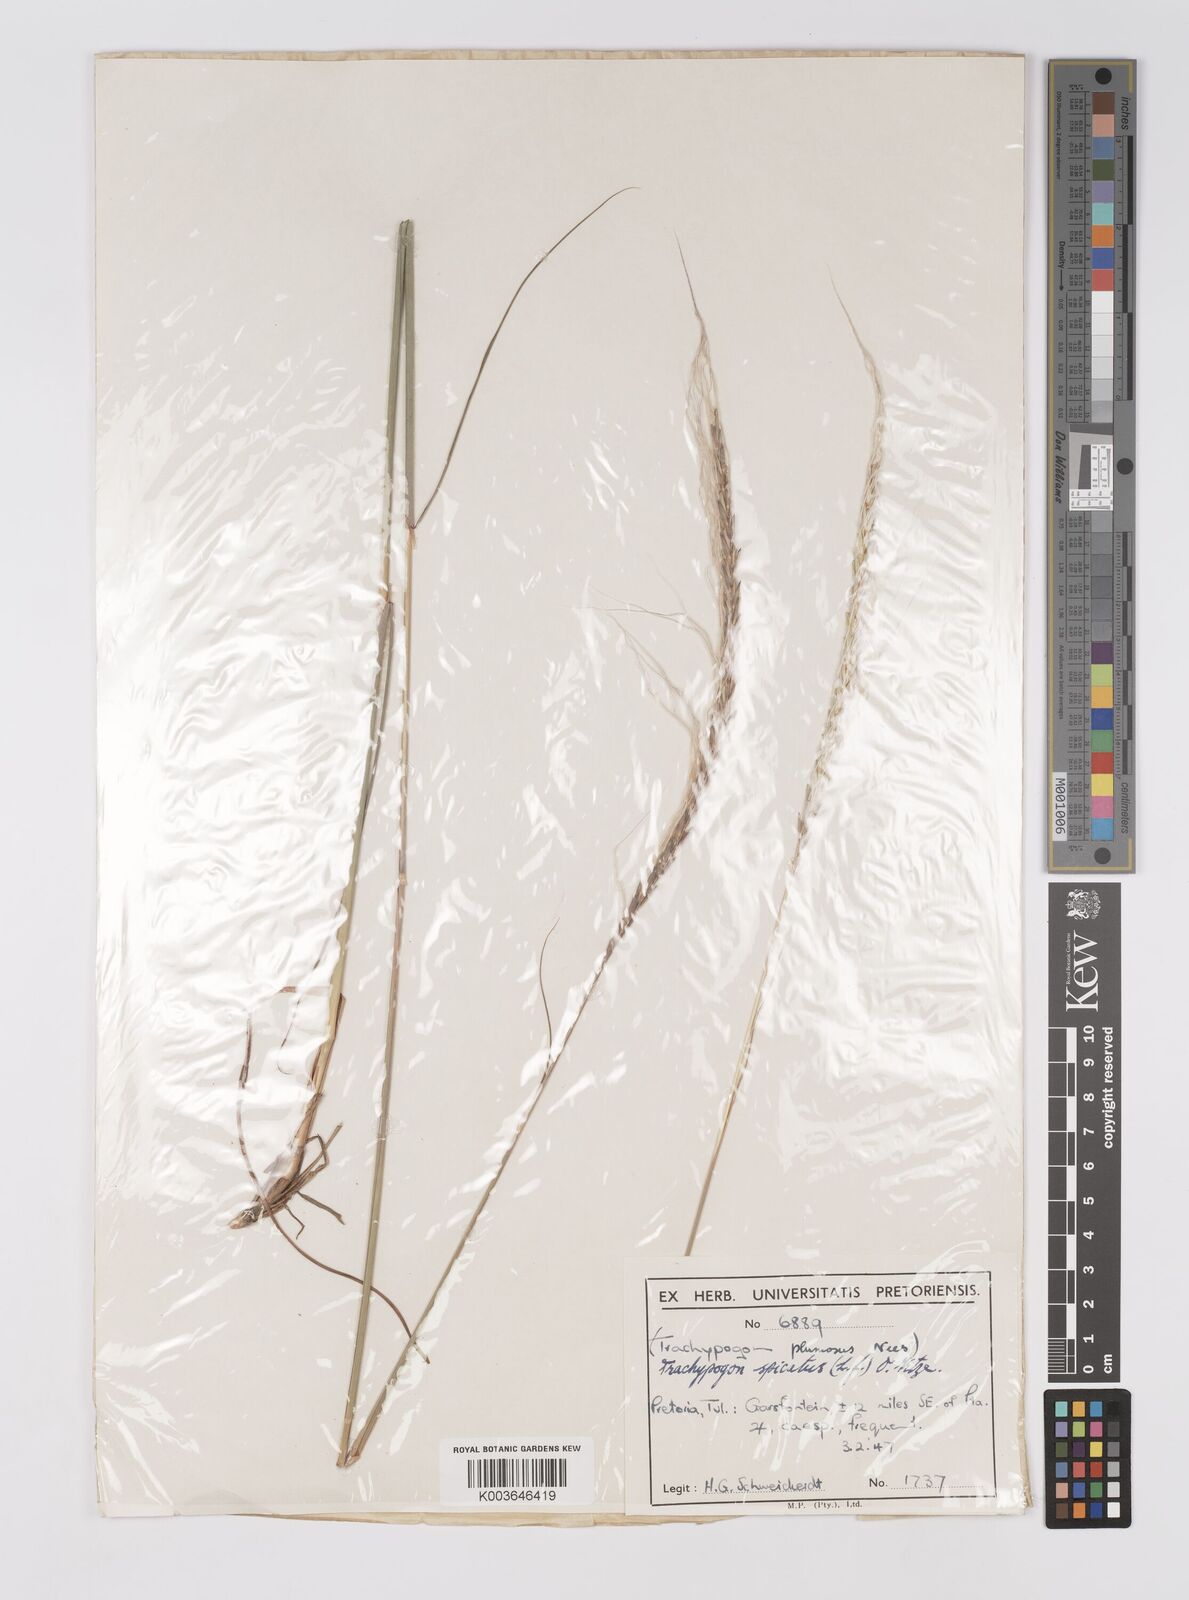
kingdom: Plantae
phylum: Tracheophyta
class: Liliopsida
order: Poales
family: Poaceae
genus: Trachypogon
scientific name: Trachypogon spicatus
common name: Crinkle-awn
